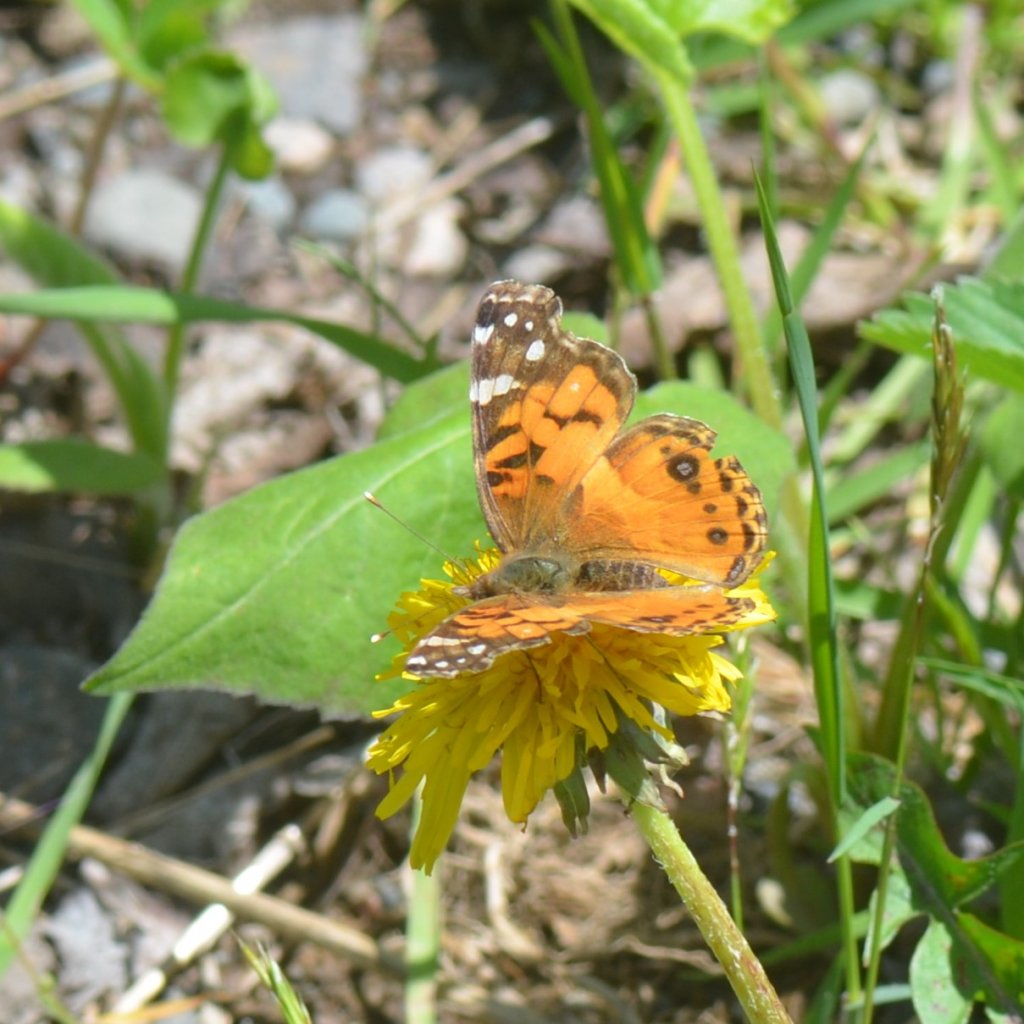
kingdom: Animalia
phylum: Arthropoda
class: Insecta
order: Lepidoptera
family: Nymphalidae
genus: Vanessa
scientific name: Vanessa virginiensis
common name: American Lady
